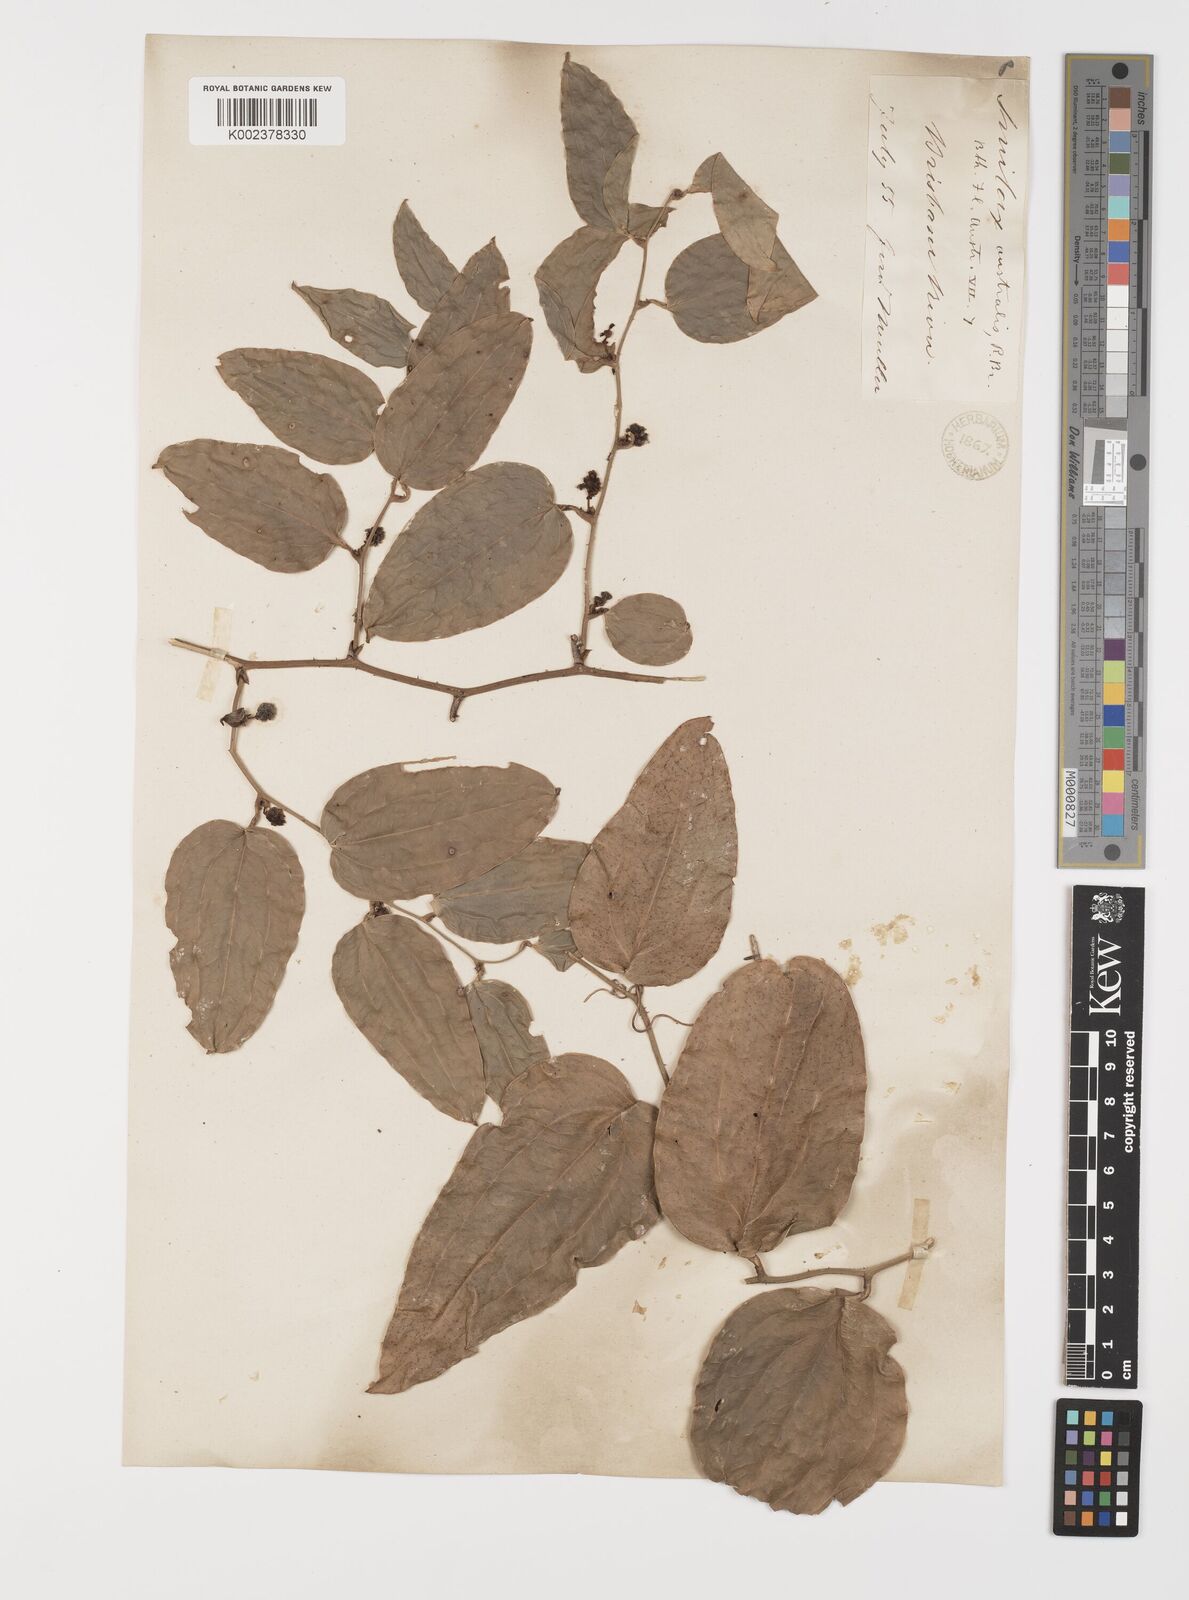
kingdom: Plantae
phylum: Tracheophyta
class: Liliopsida
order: Liliales
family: Smilacaceae
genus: Smilax
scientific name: Smilax australis
